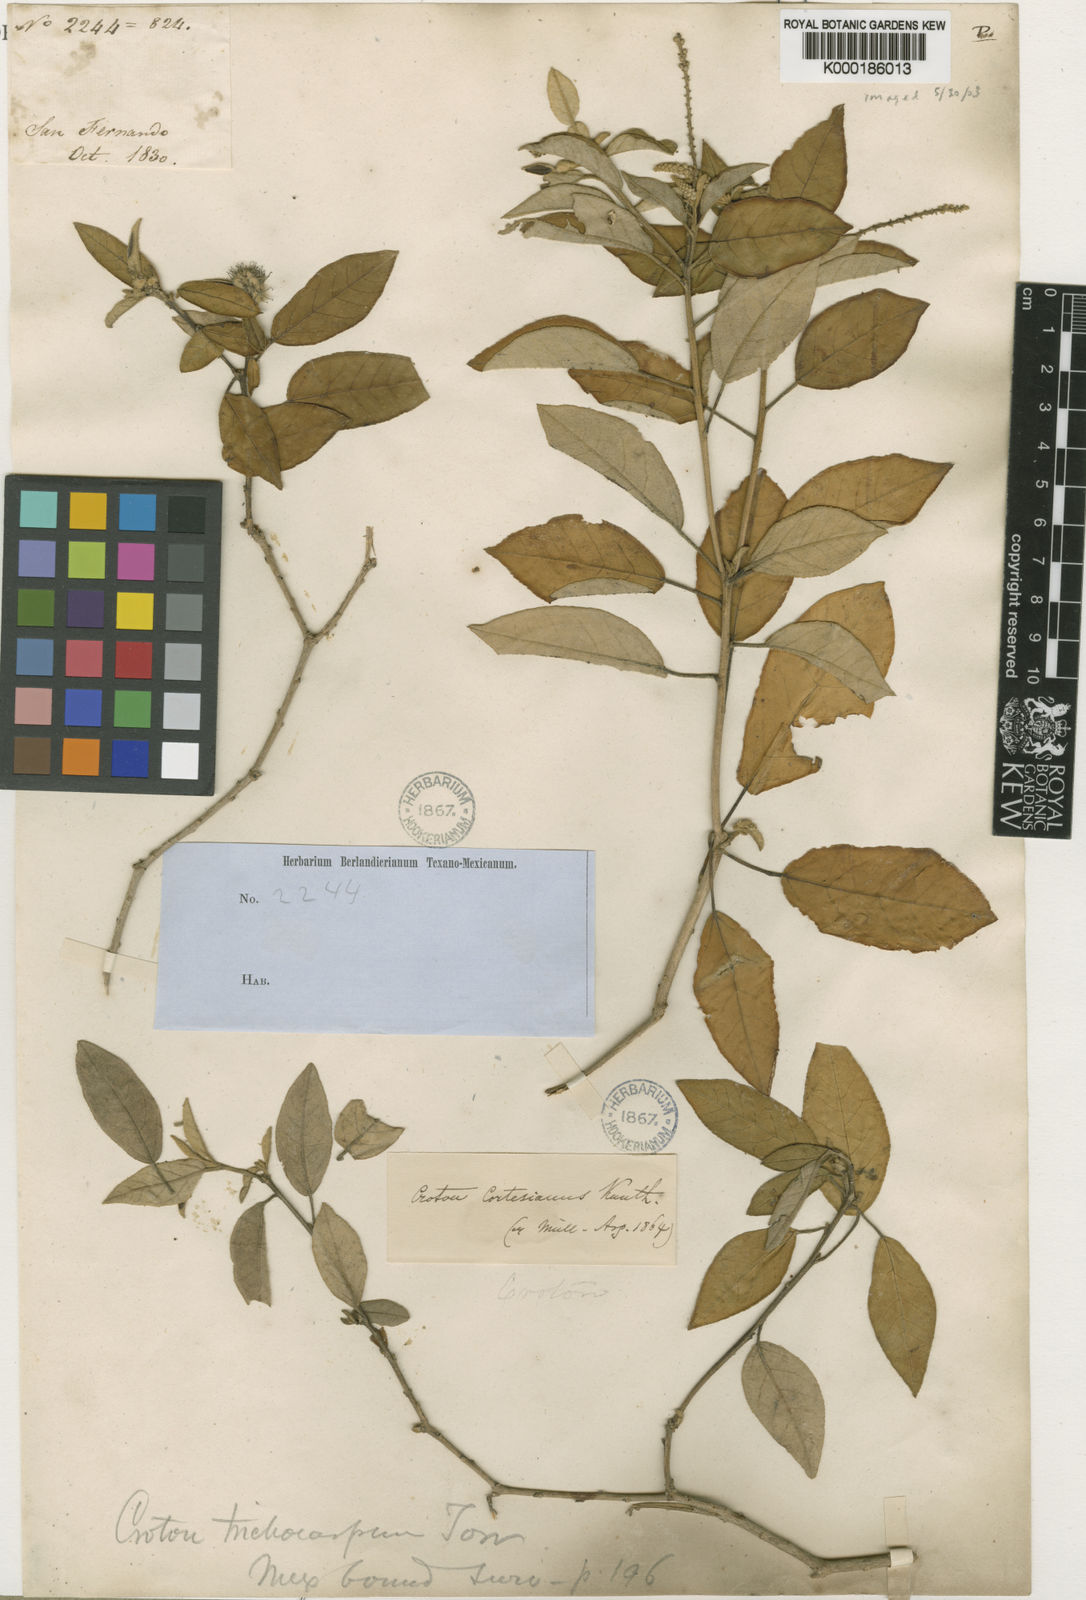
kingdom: Plantae
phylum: Tracheophyta
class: Magnoliopsida
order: Malpighiales
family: Euphorbiaceae
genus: Croton
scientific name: Croton cortesianus
